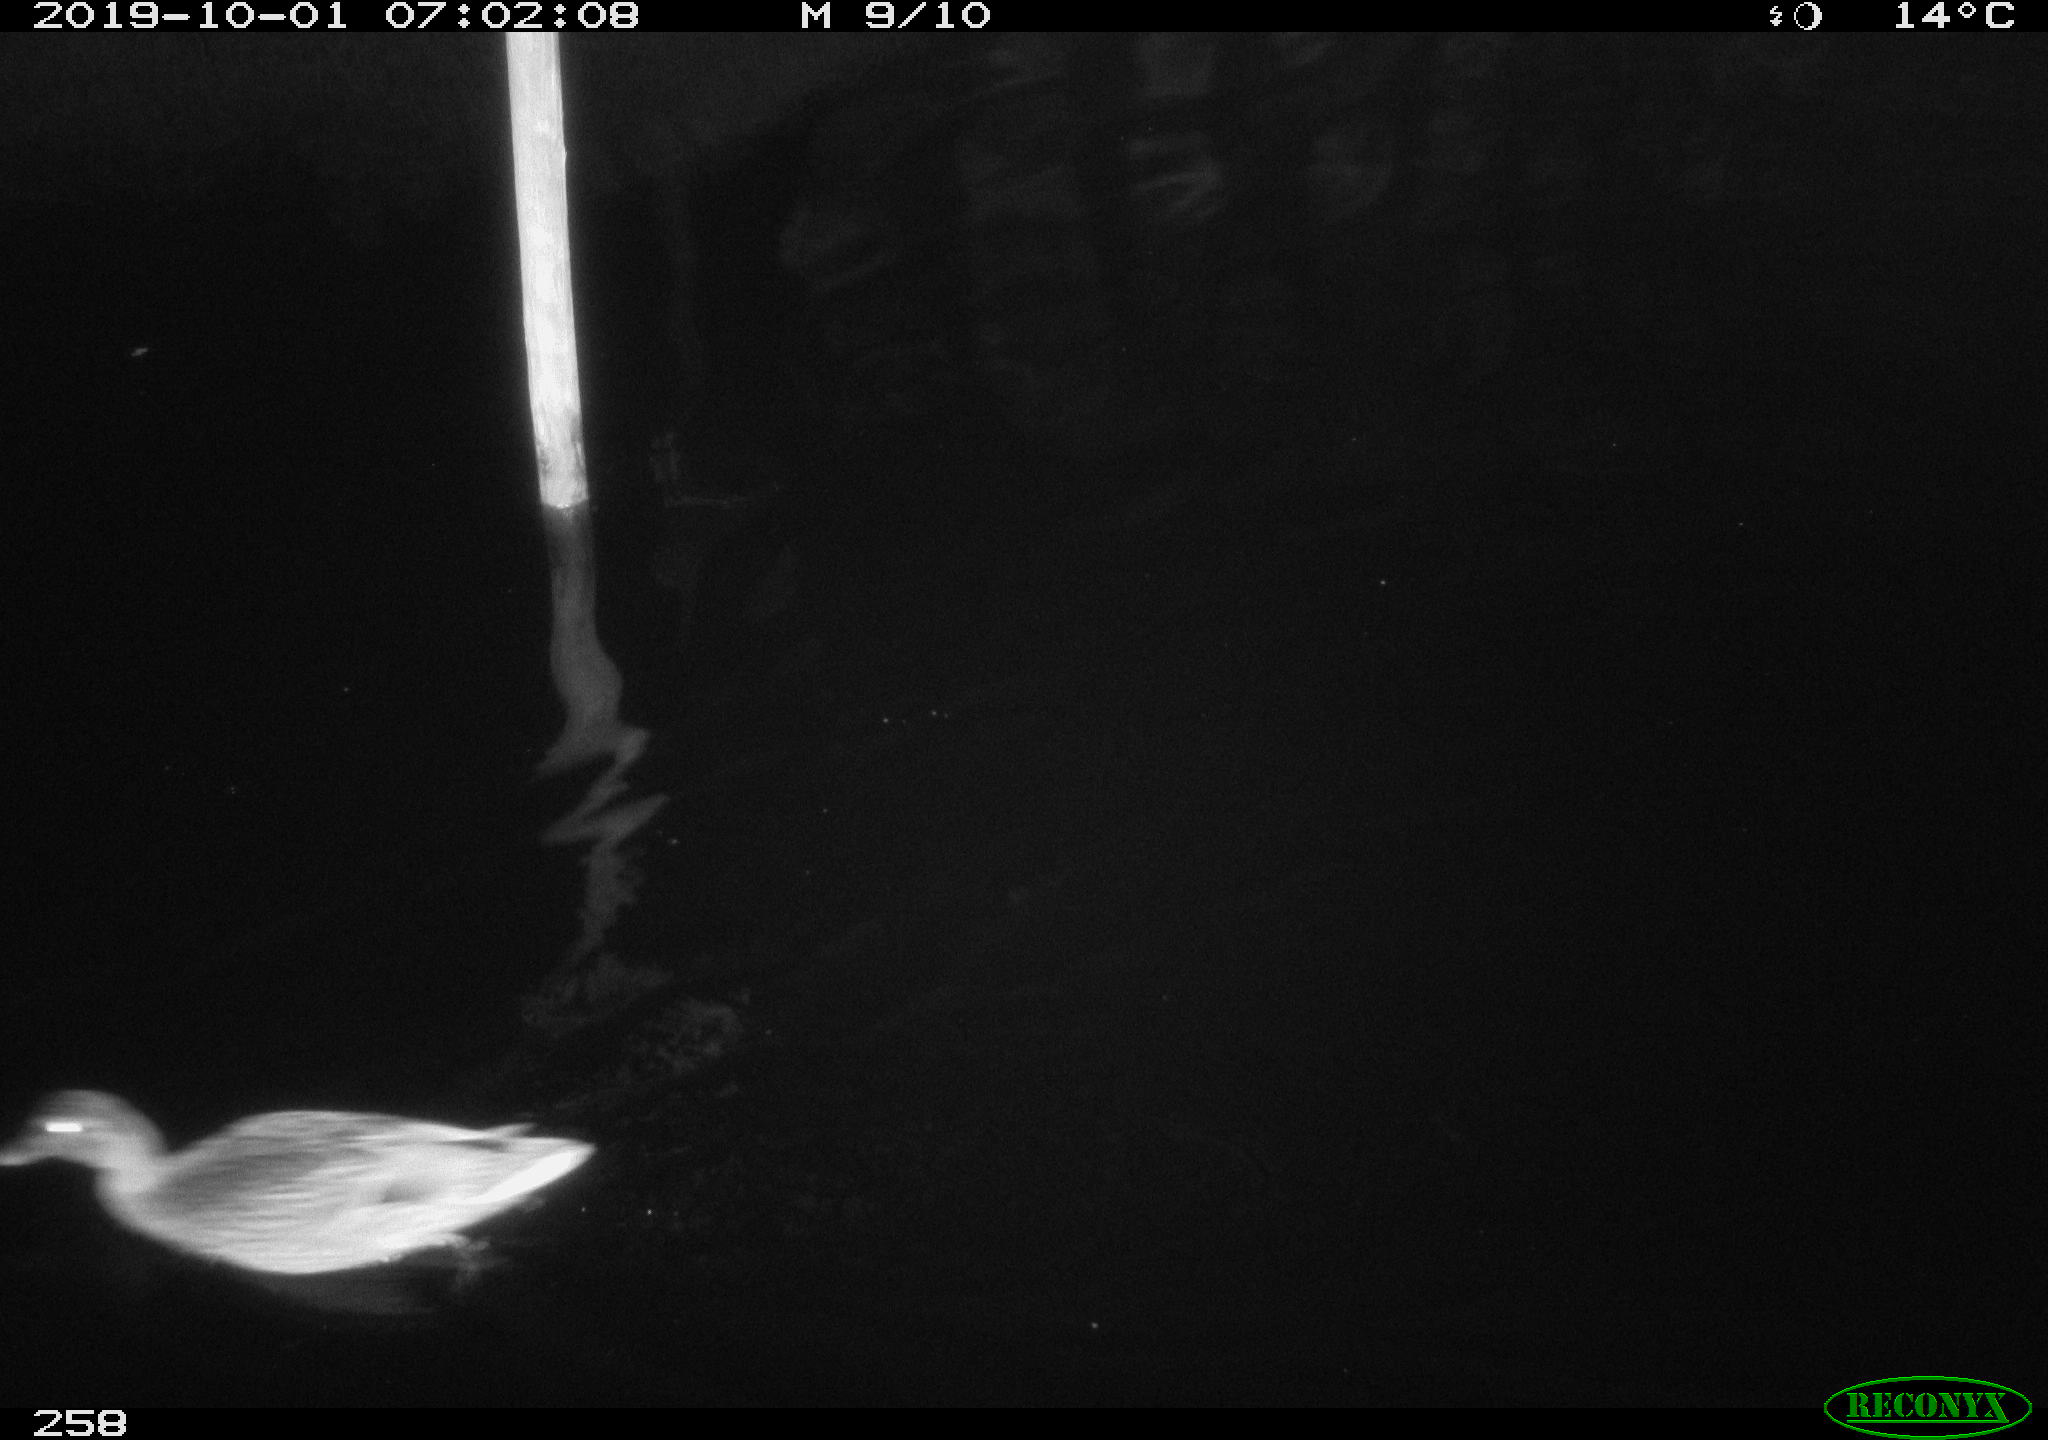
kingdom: Animalia
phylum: Chordata
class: Aves
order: Anseriformes
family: Anatidae
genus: Anas
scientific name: Anas platyrhynchos
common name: Mallard
